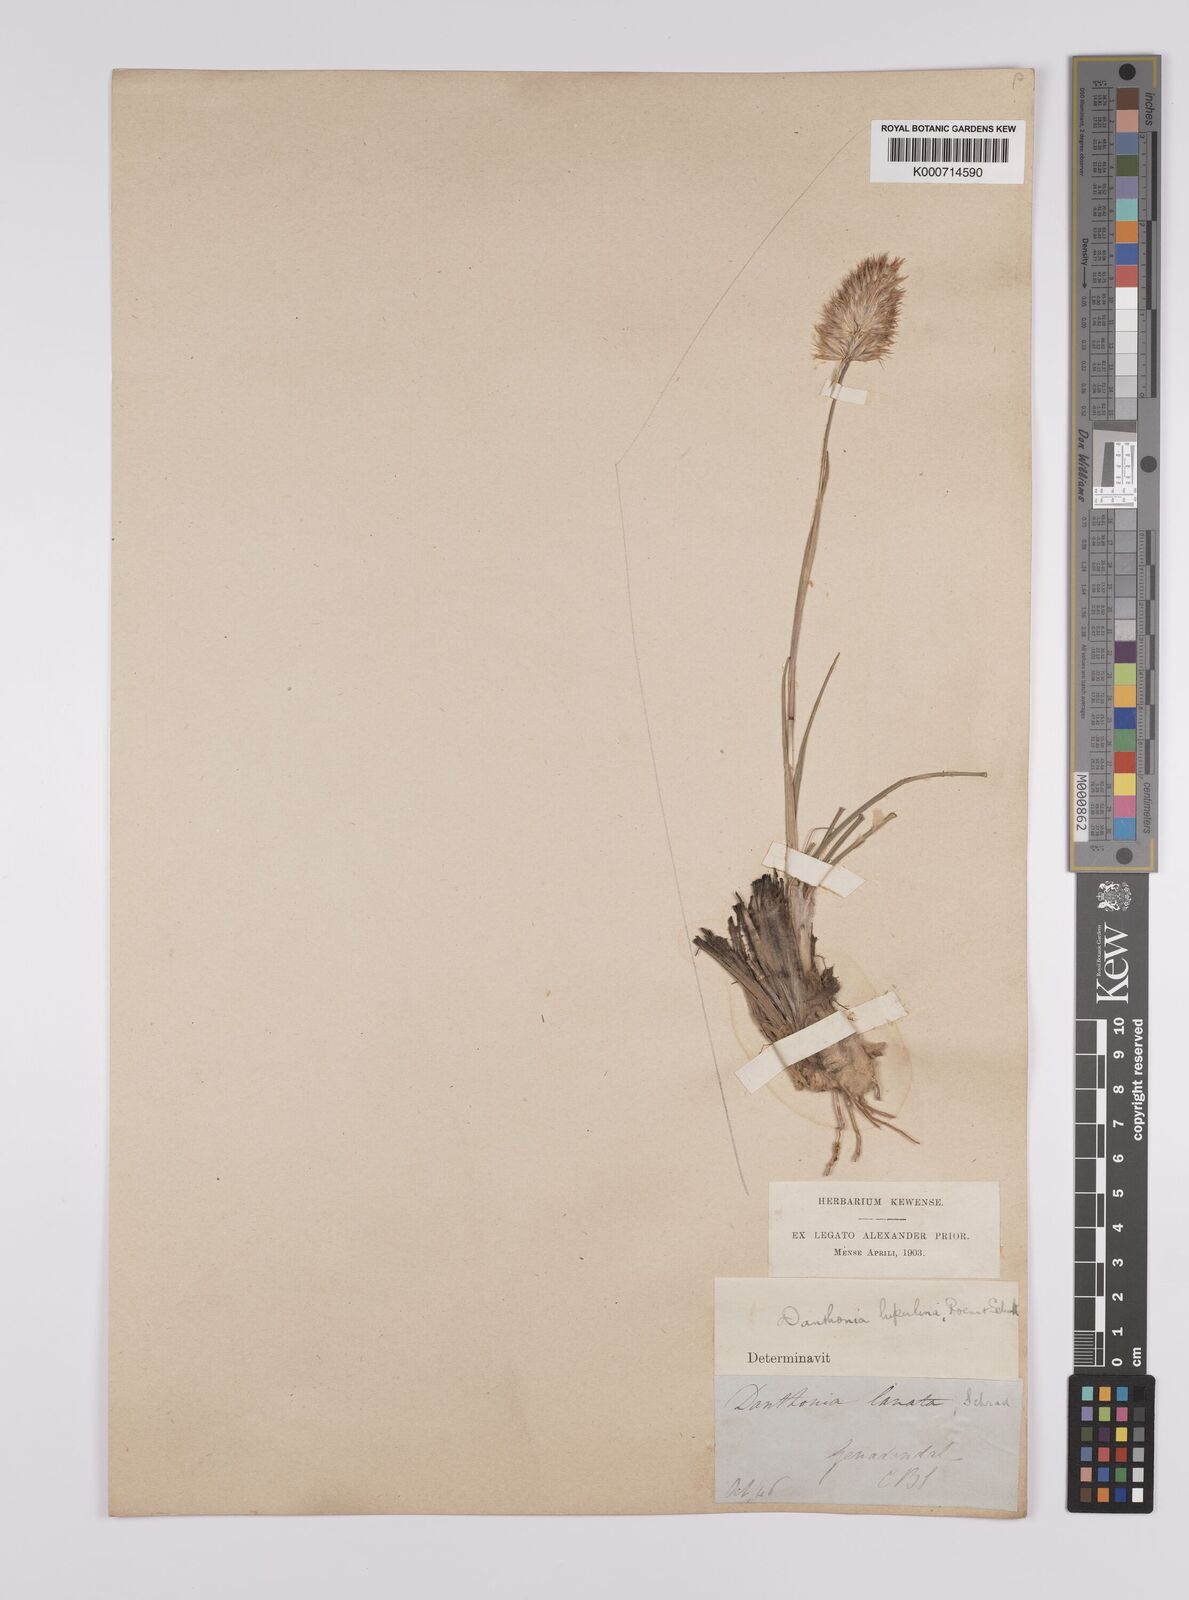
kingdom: Plantae
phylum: Tracheophyta
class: Liliopsida
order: Poales
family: Poaceae
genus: Rytidosperma
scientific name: Rytidosperma
